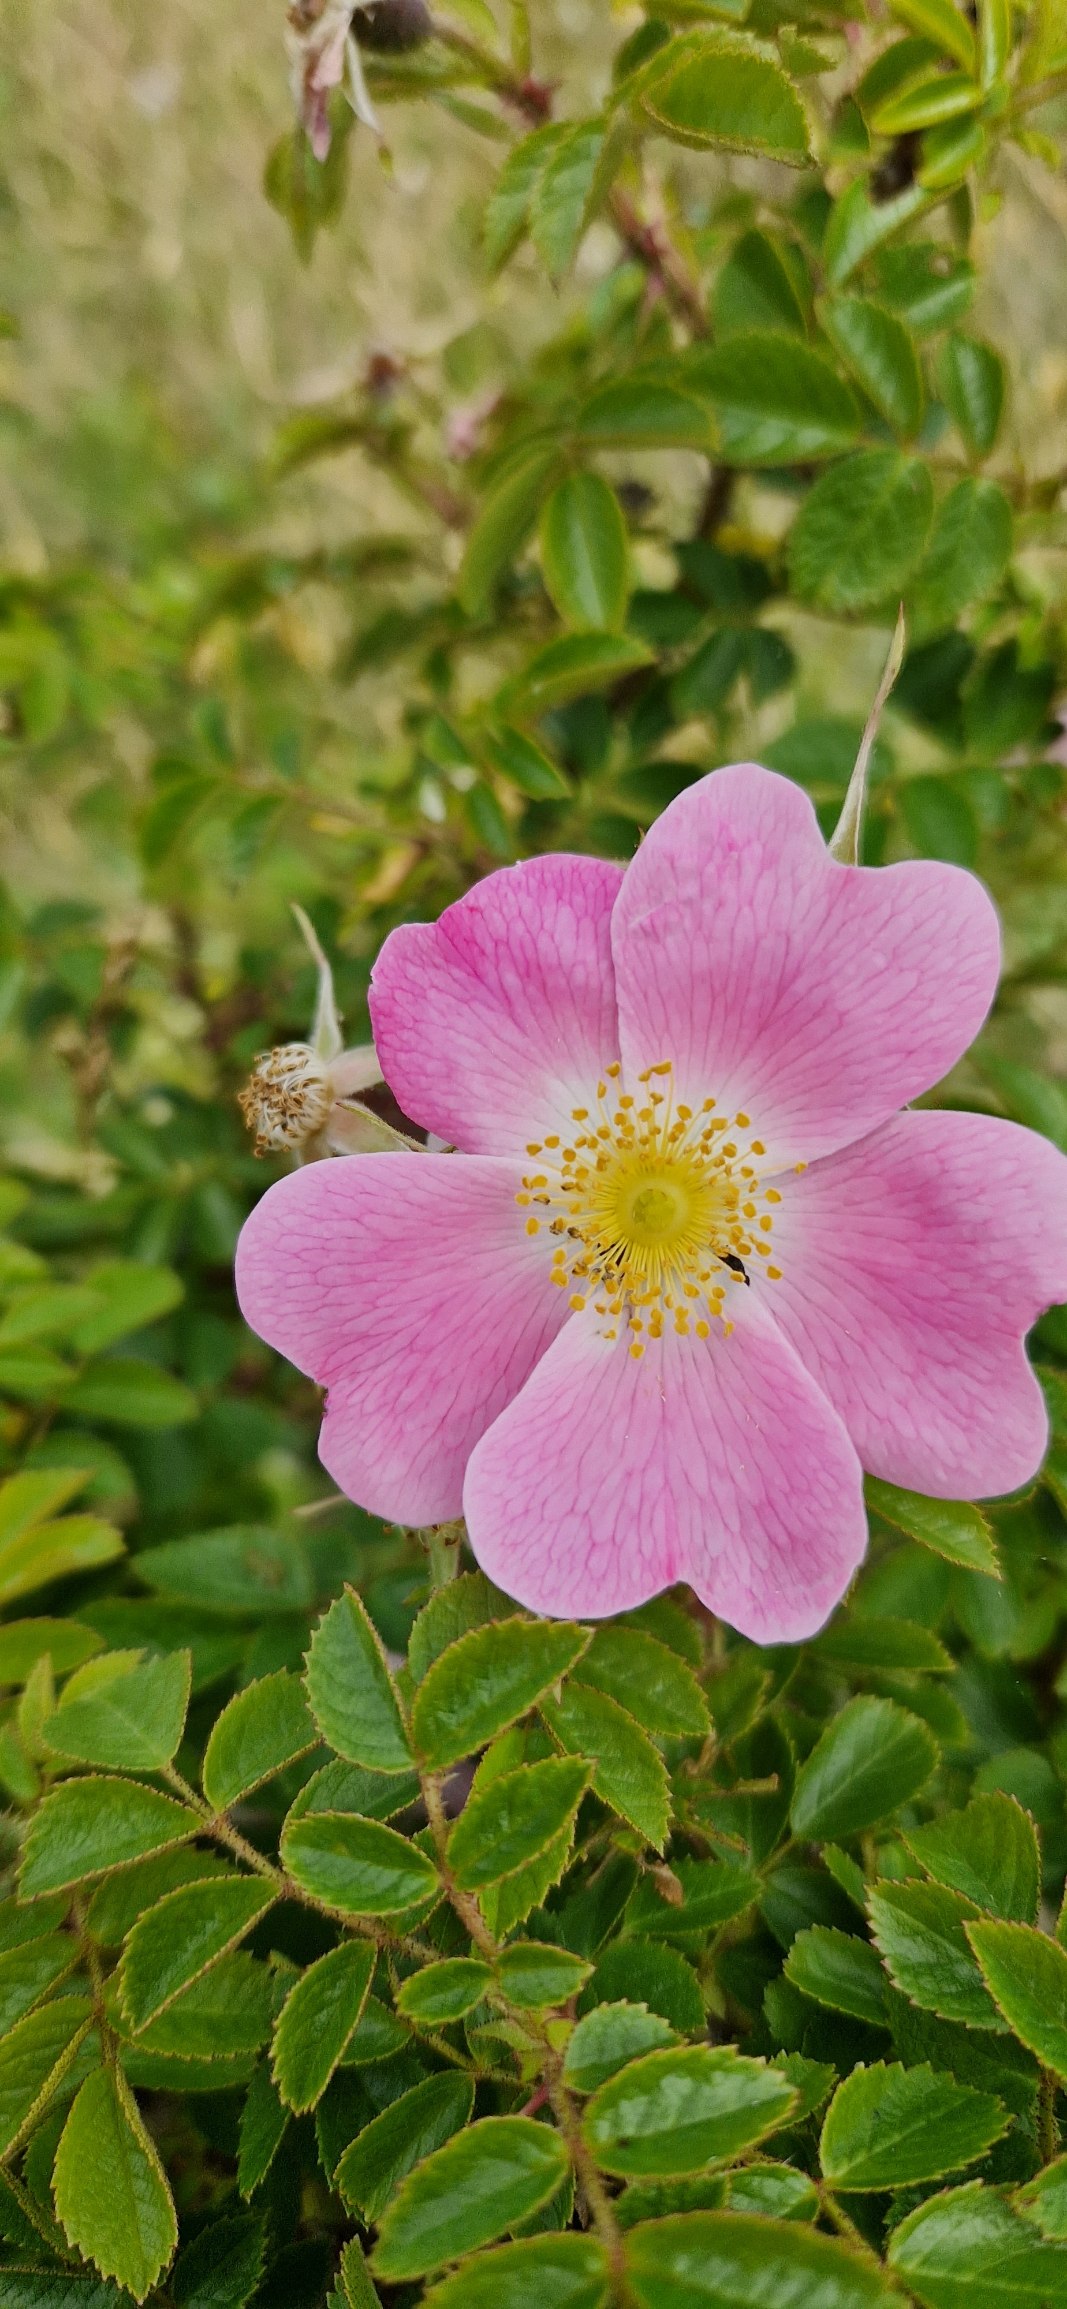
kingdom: Plantae
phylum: Tracheophyta
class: Magnoliopsida
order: Rosales
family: Rosaceae
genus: Rosa
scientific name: Rosa rubiginosa
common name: Æble-rose
